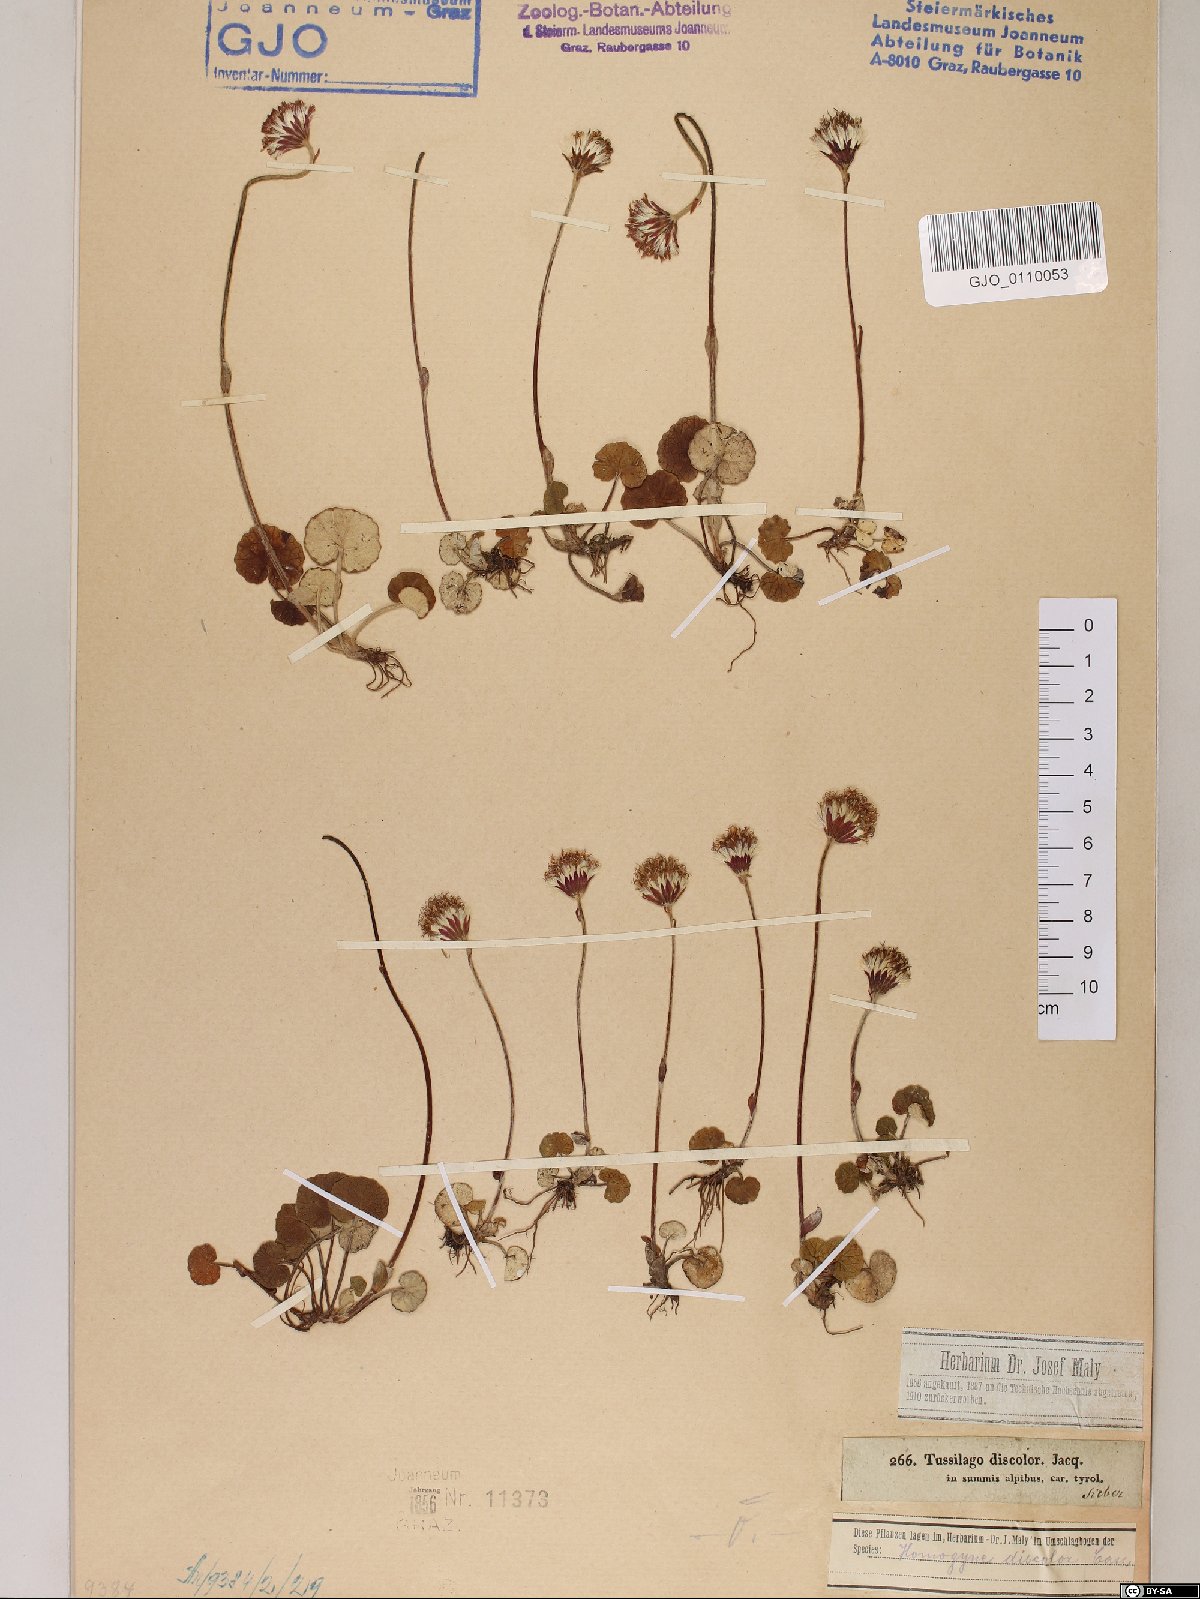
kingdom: Plantae
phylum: Tracheophyta
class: Magnoliopsida
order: Asterales
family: Asteraceae
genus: Homogyne
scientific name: Homogyne discolor
